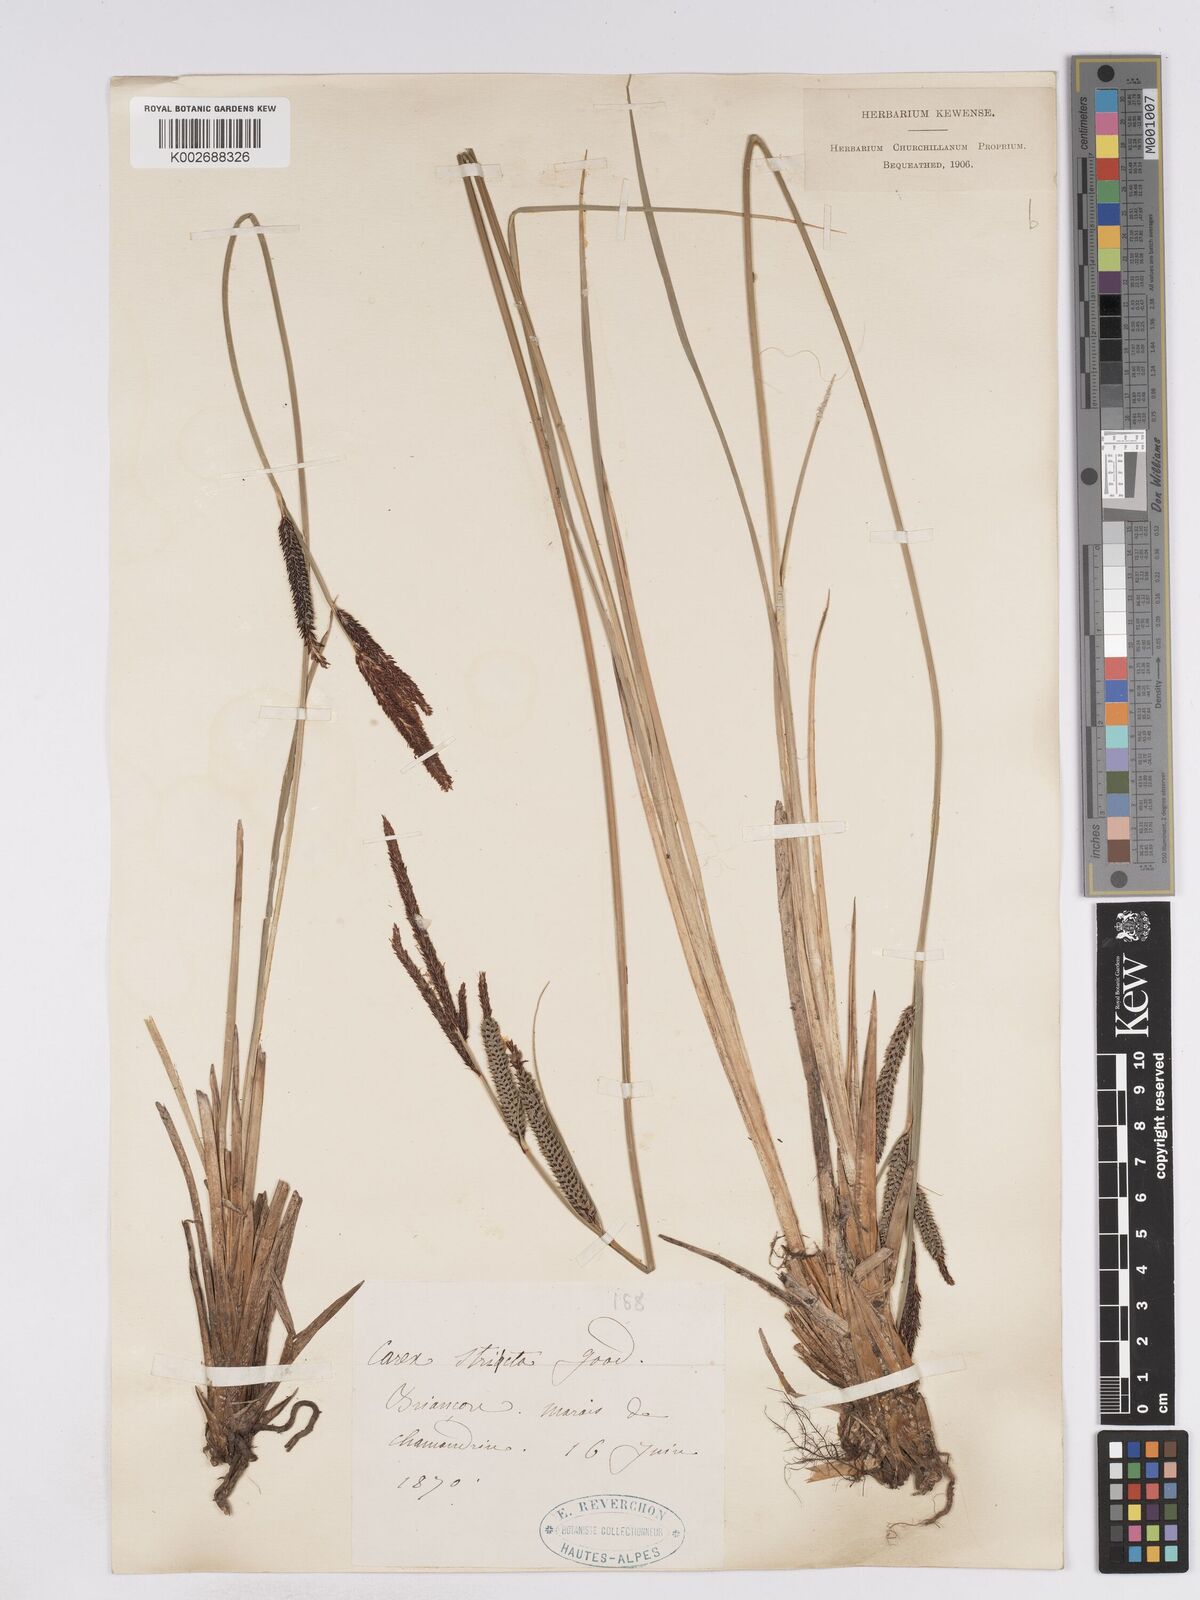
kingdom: Plantae
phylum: Tracheophyta
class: Liliopsida
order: Poales
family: Cyperaceae
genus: Carex
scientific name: Carex elata
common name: Tufted sedge
